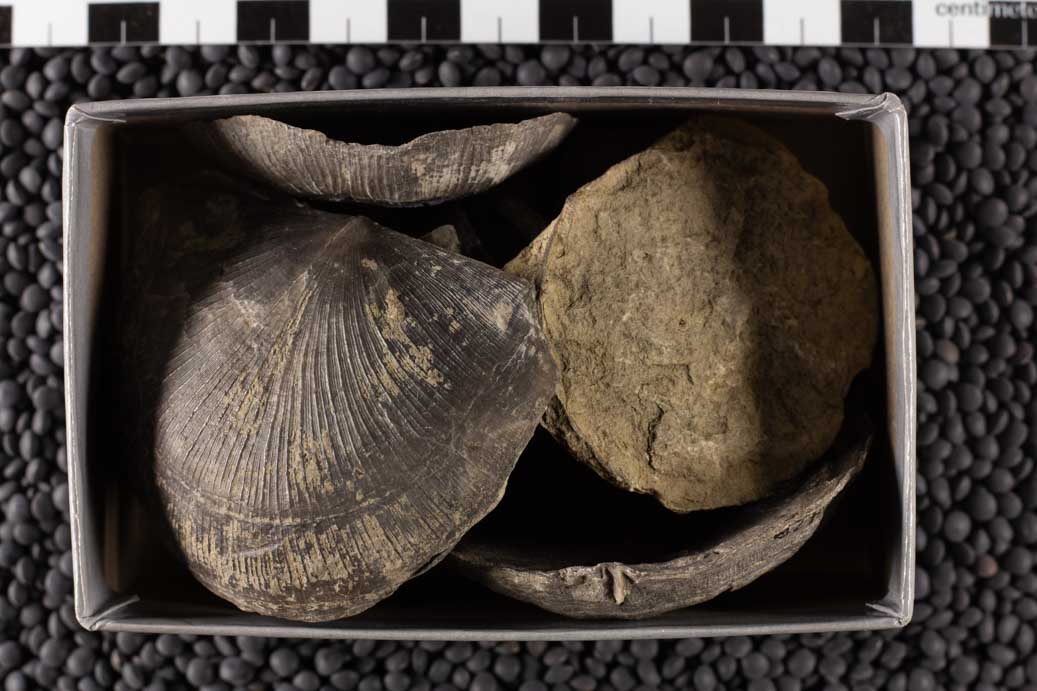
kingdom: Animalia
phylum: Brachiopoda
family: Strophomenidae
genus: Strophomena
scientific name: Strophomena
